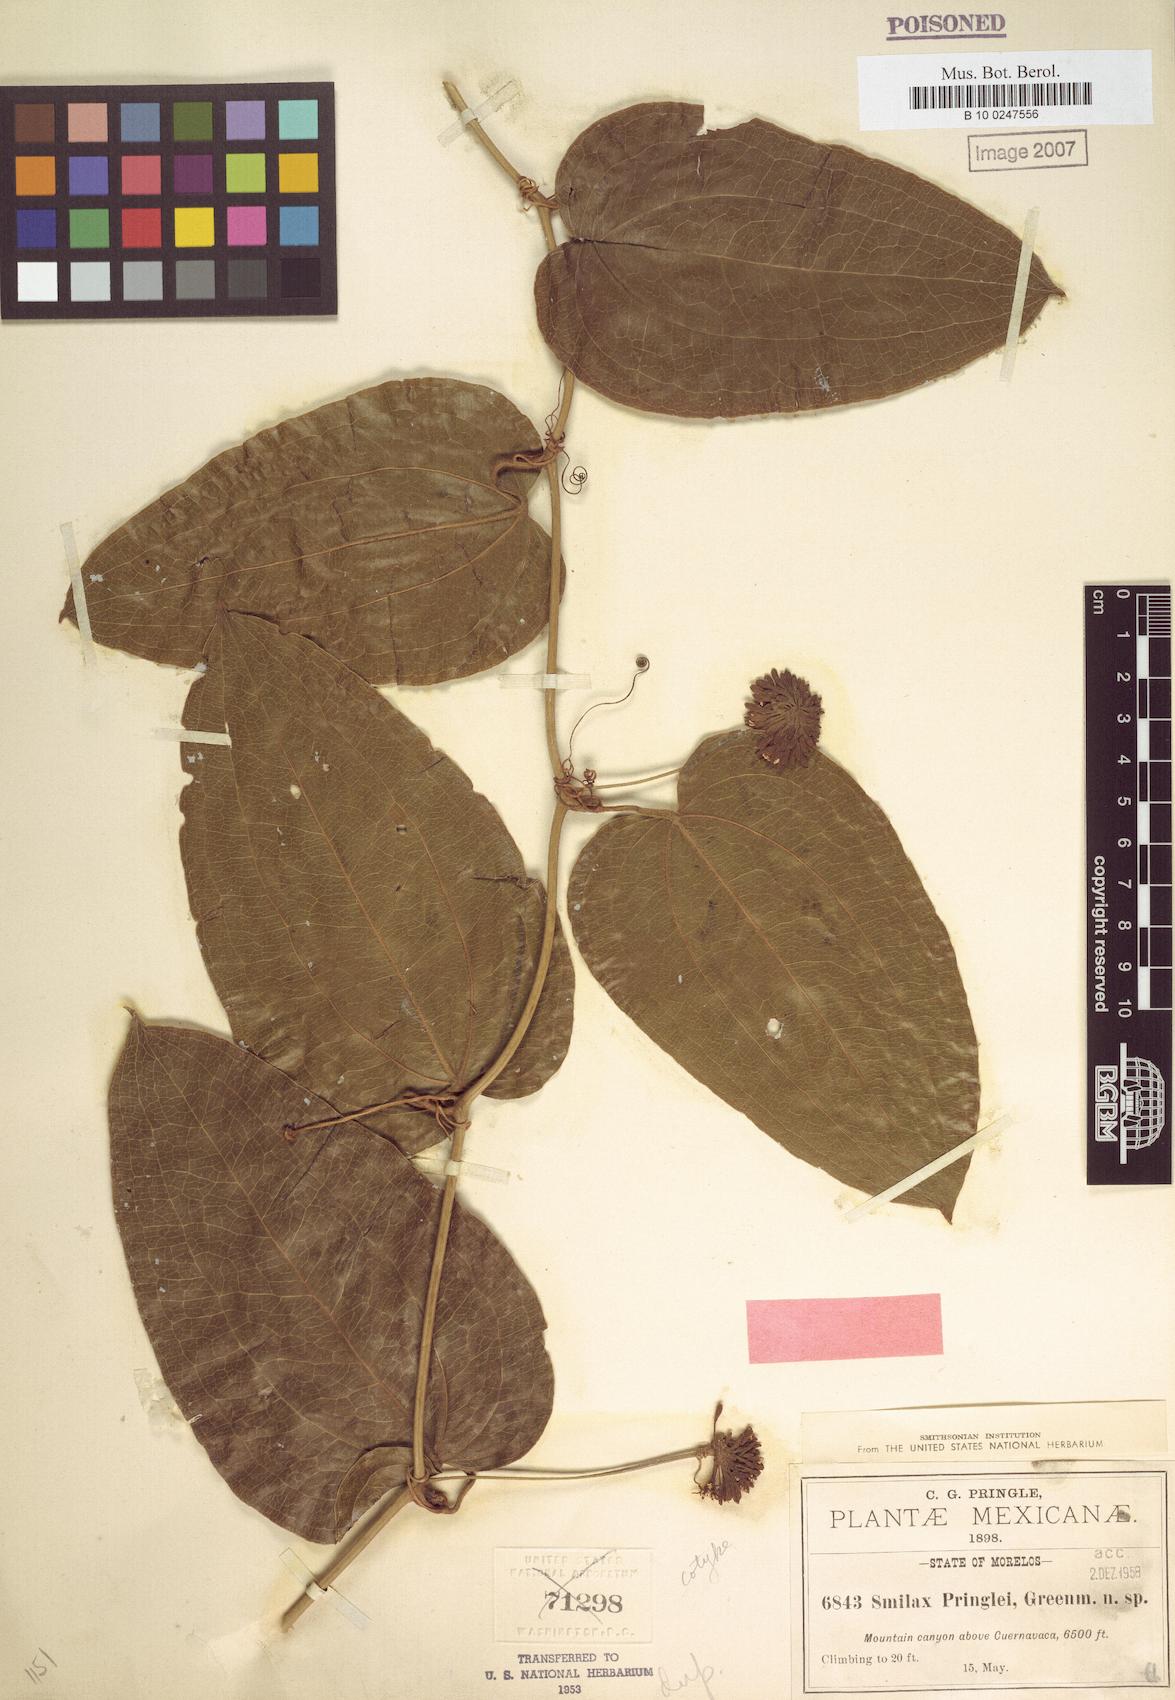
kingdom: Plantae
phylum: Tracheophyta
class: Liliopsida
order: Liliales
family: Smilacaceae
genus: Smilax
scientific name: Smilax mollis
